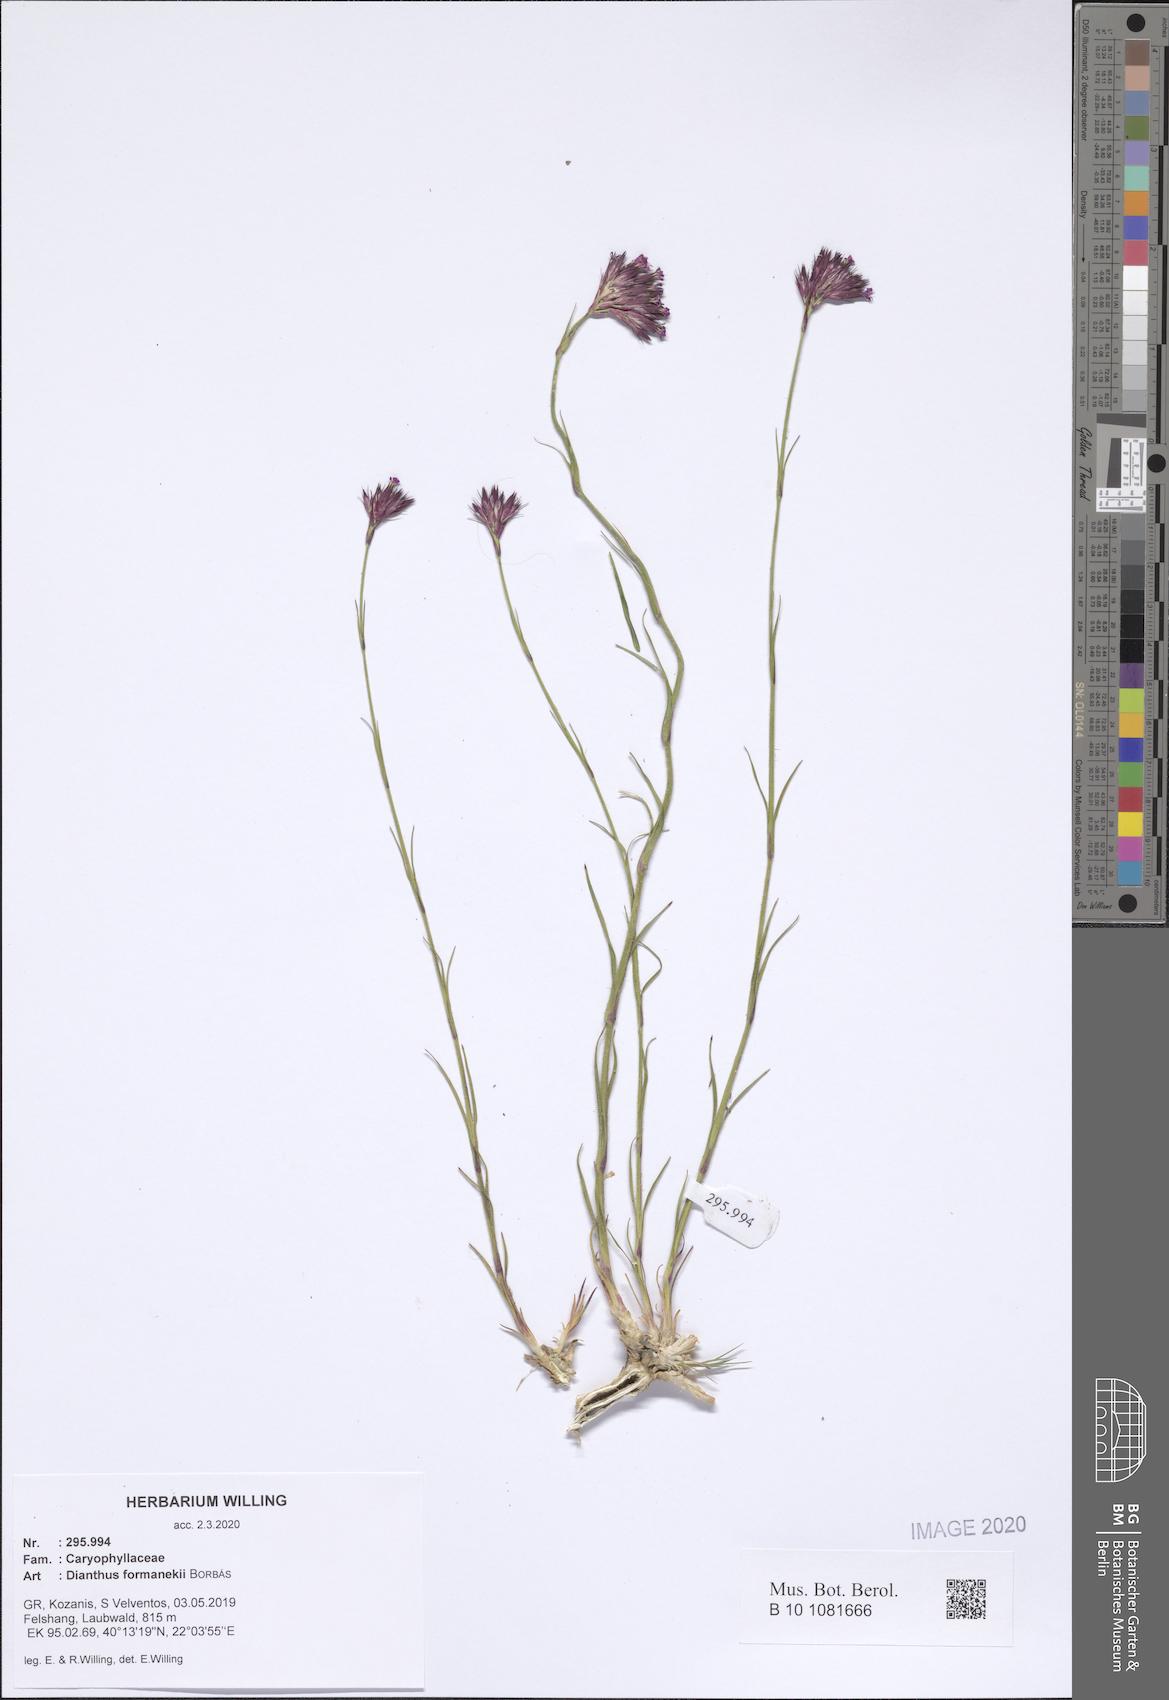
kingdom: Plantae
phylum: Tracheophyta
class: Magnoliopsida
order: Caryophyllales
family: Caryophyllaceae
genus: Dianthus
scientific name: Dianthus formanekii
